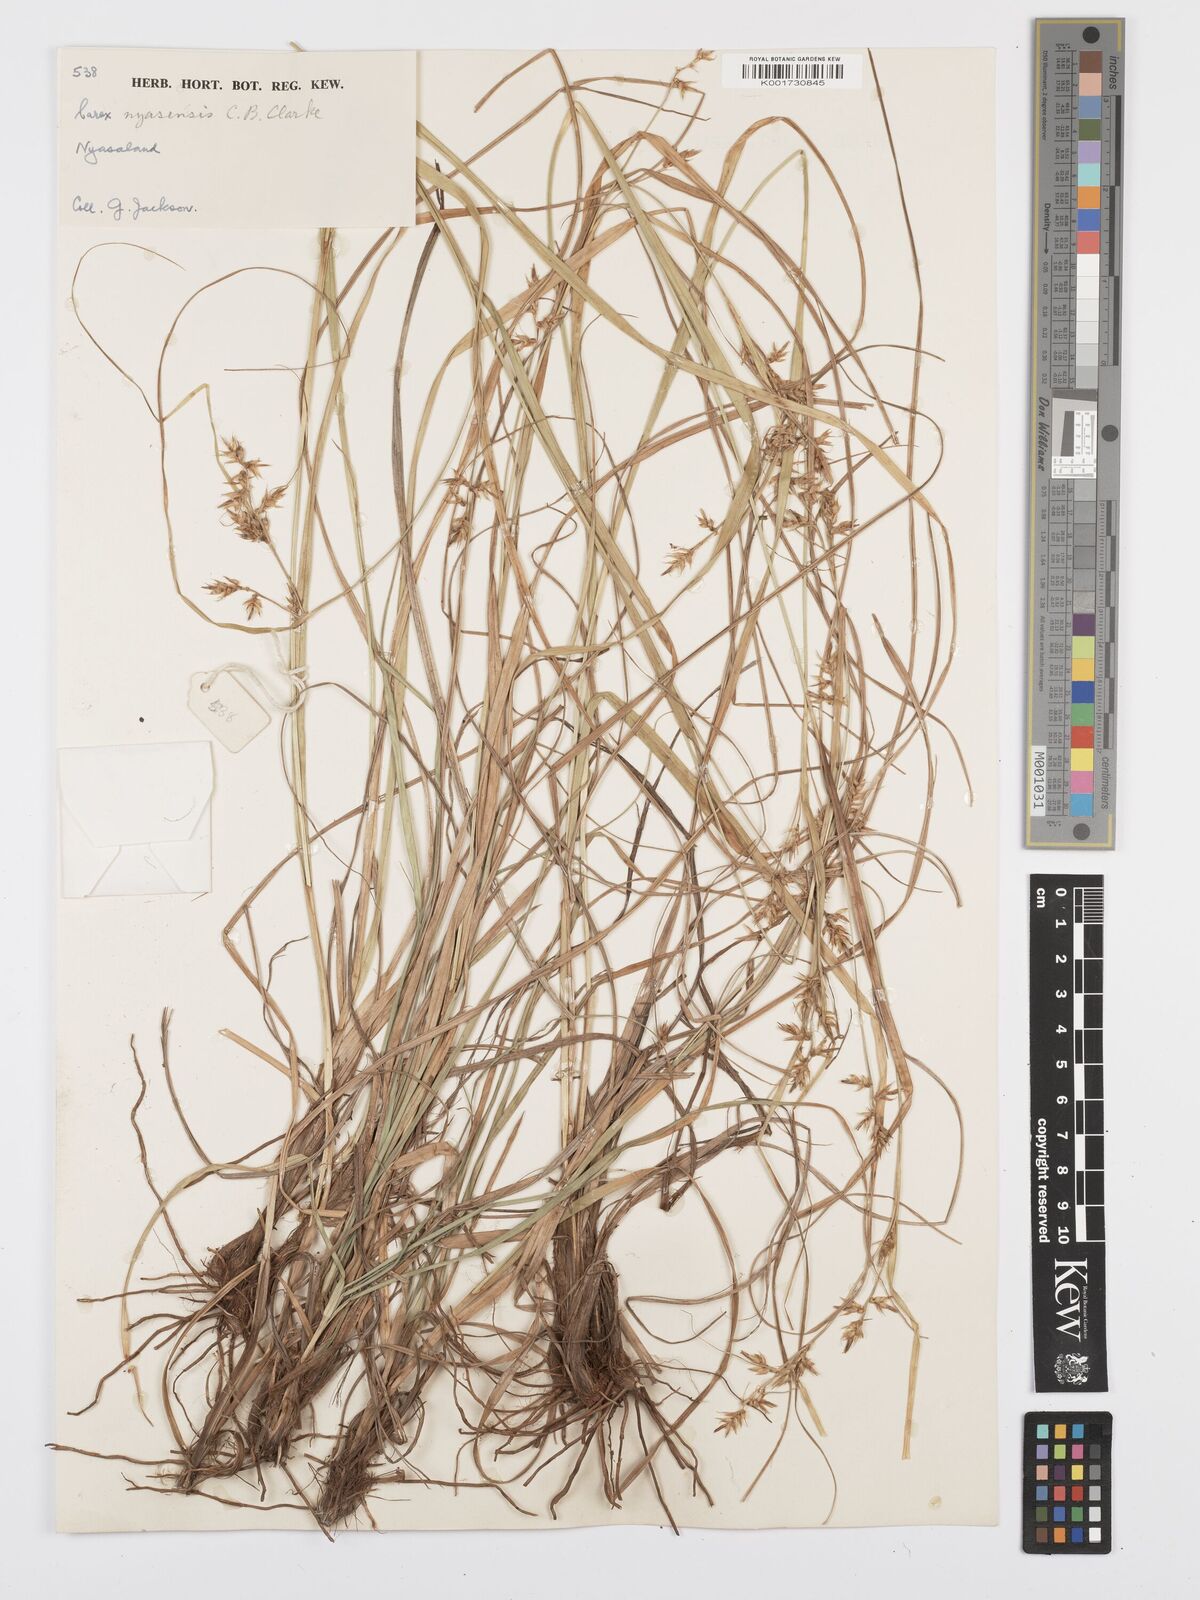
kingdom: Plantae
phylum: Tracheophyta
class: Liliopsida
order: Poales
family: Cyperaceae
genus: Carex
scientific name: Carex spicatopaniculata
